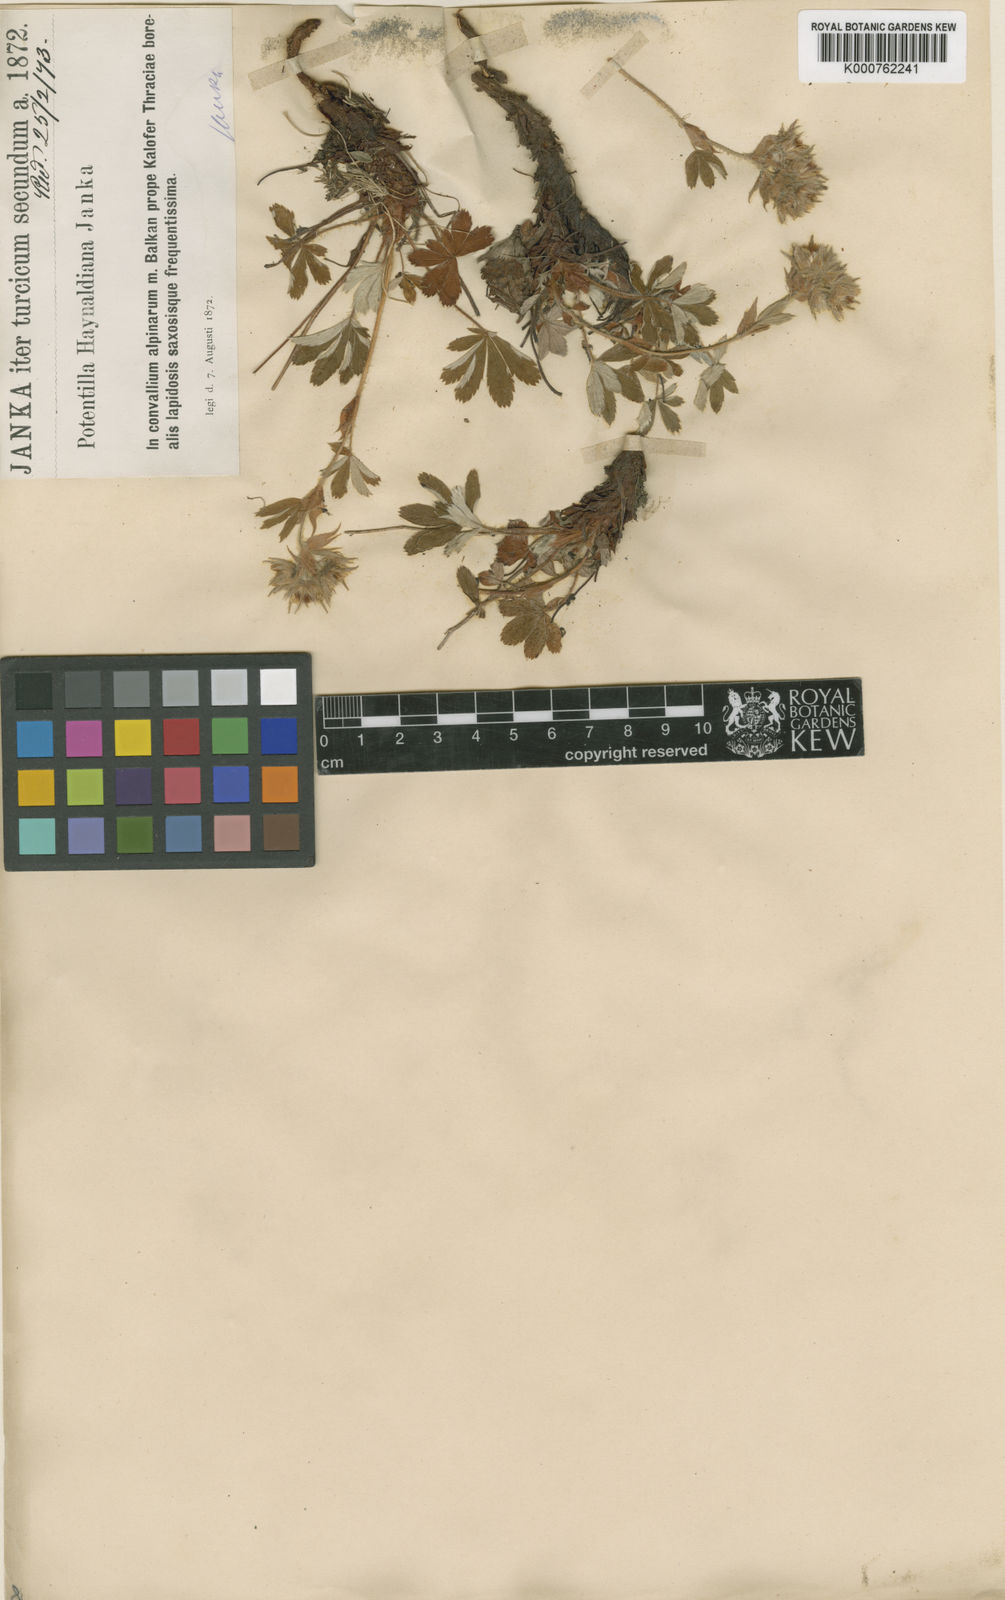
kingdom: Plantae
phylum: Tracheophyta
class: Magnoliopsida
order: Rosales
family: Rosaceae
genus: Potentilla
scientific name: Potentilla haynaldiana
